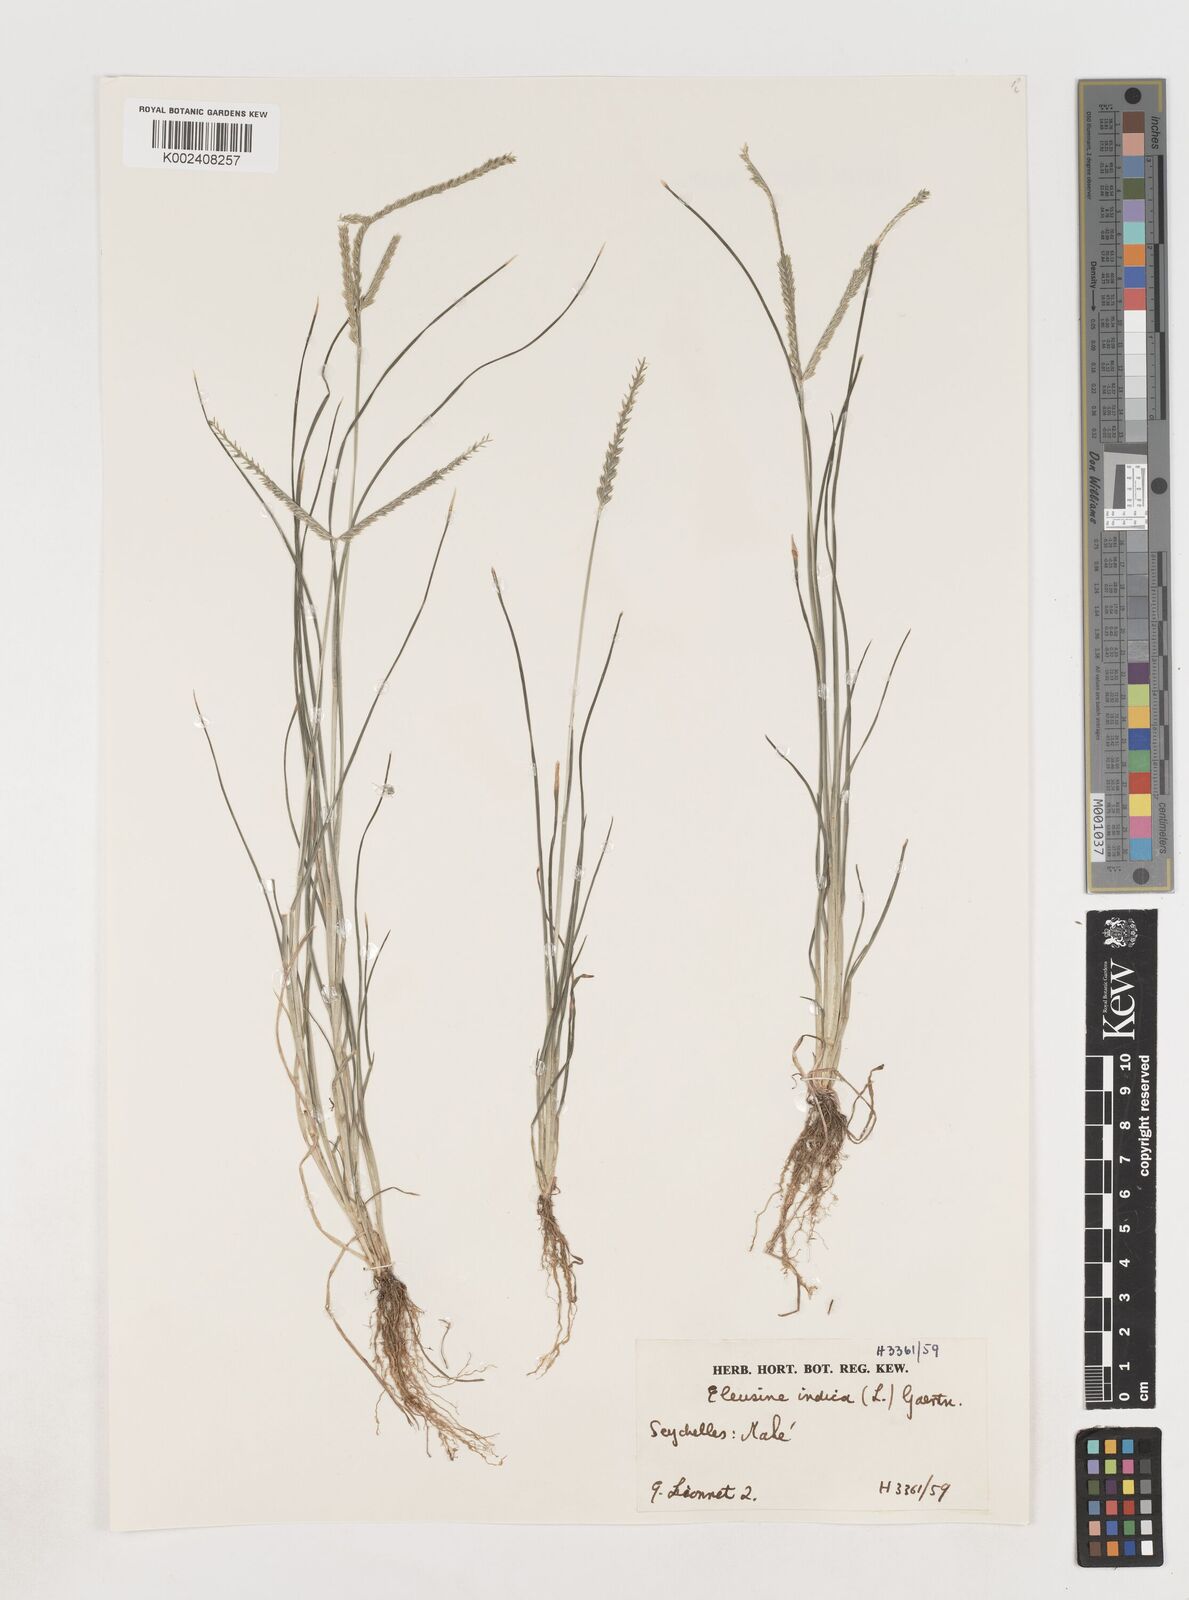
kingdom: Plantae
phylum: Tracheophyta
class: Liliopsida
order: Poales
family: Poaceae
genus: Eleusine
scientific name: Eleusine indica
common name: Yard-grass
